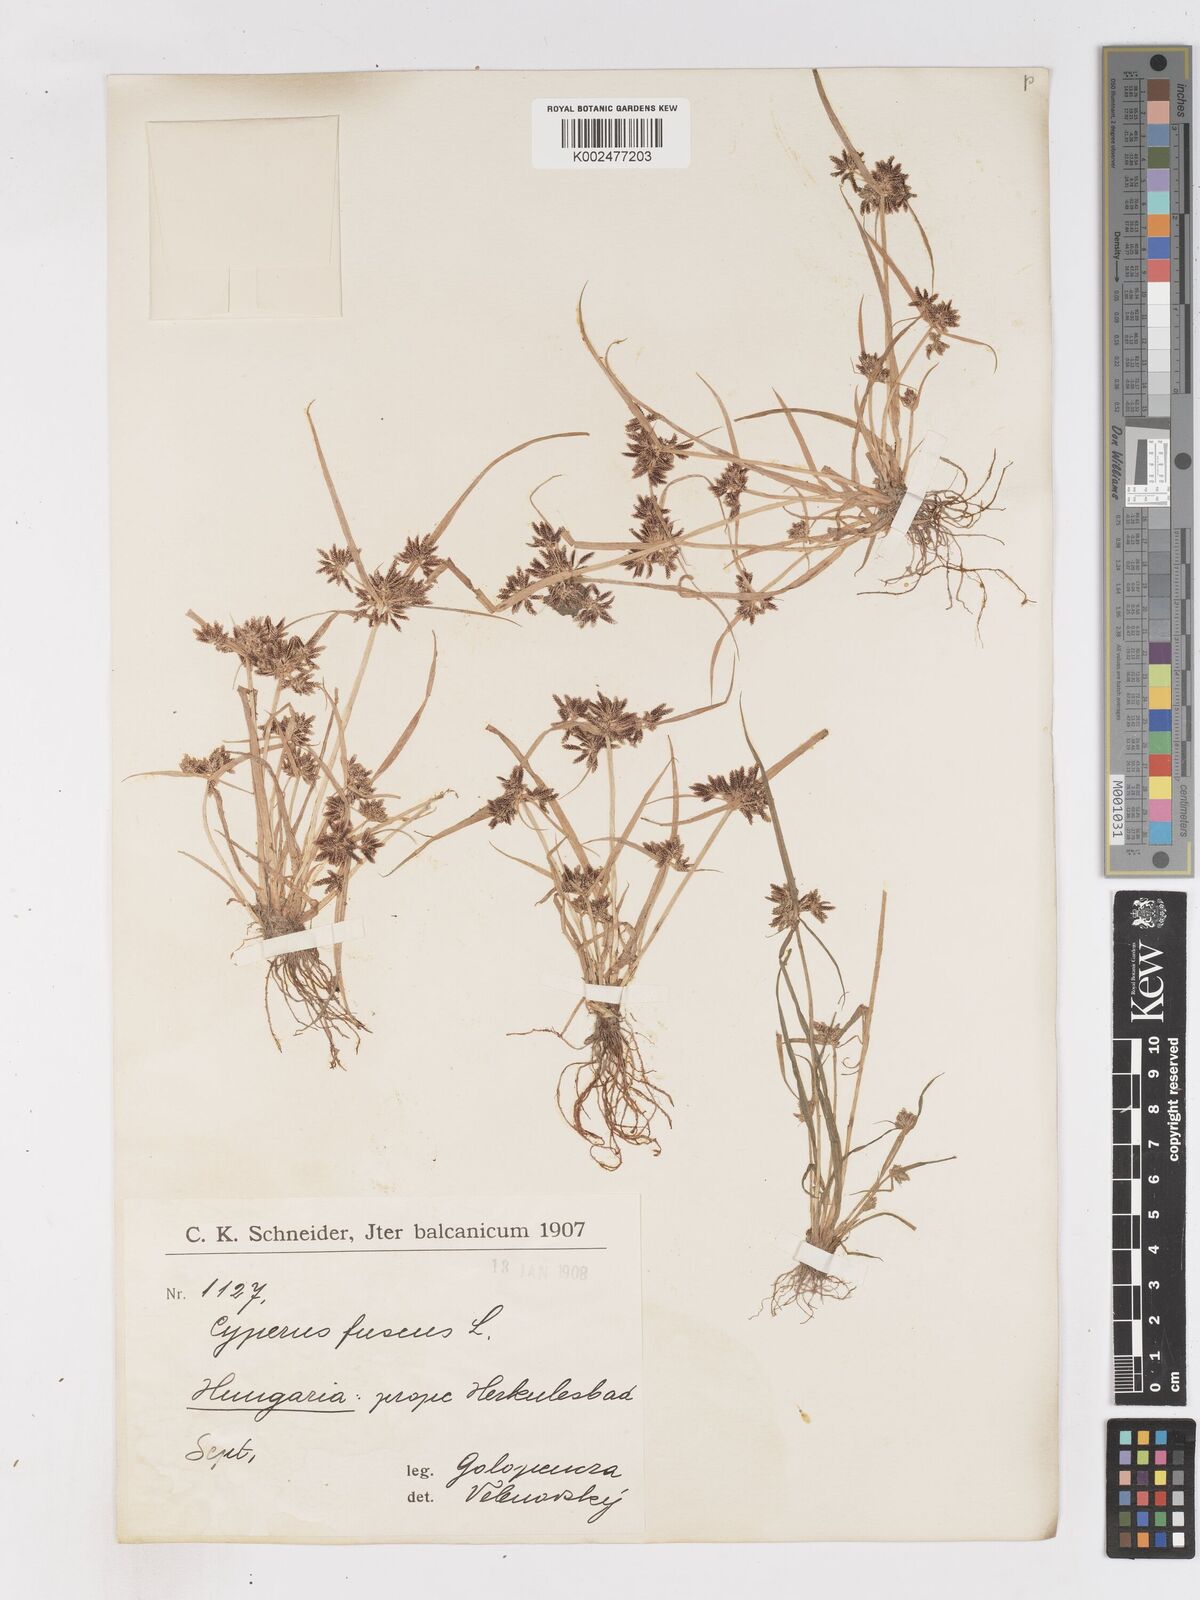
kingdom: Plantae
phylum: Tracheophyta
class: Liliopsida
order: Poales
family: Cyperaceae
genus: Cyperus
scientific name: Cyperus fuscus
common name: Brown galingale
